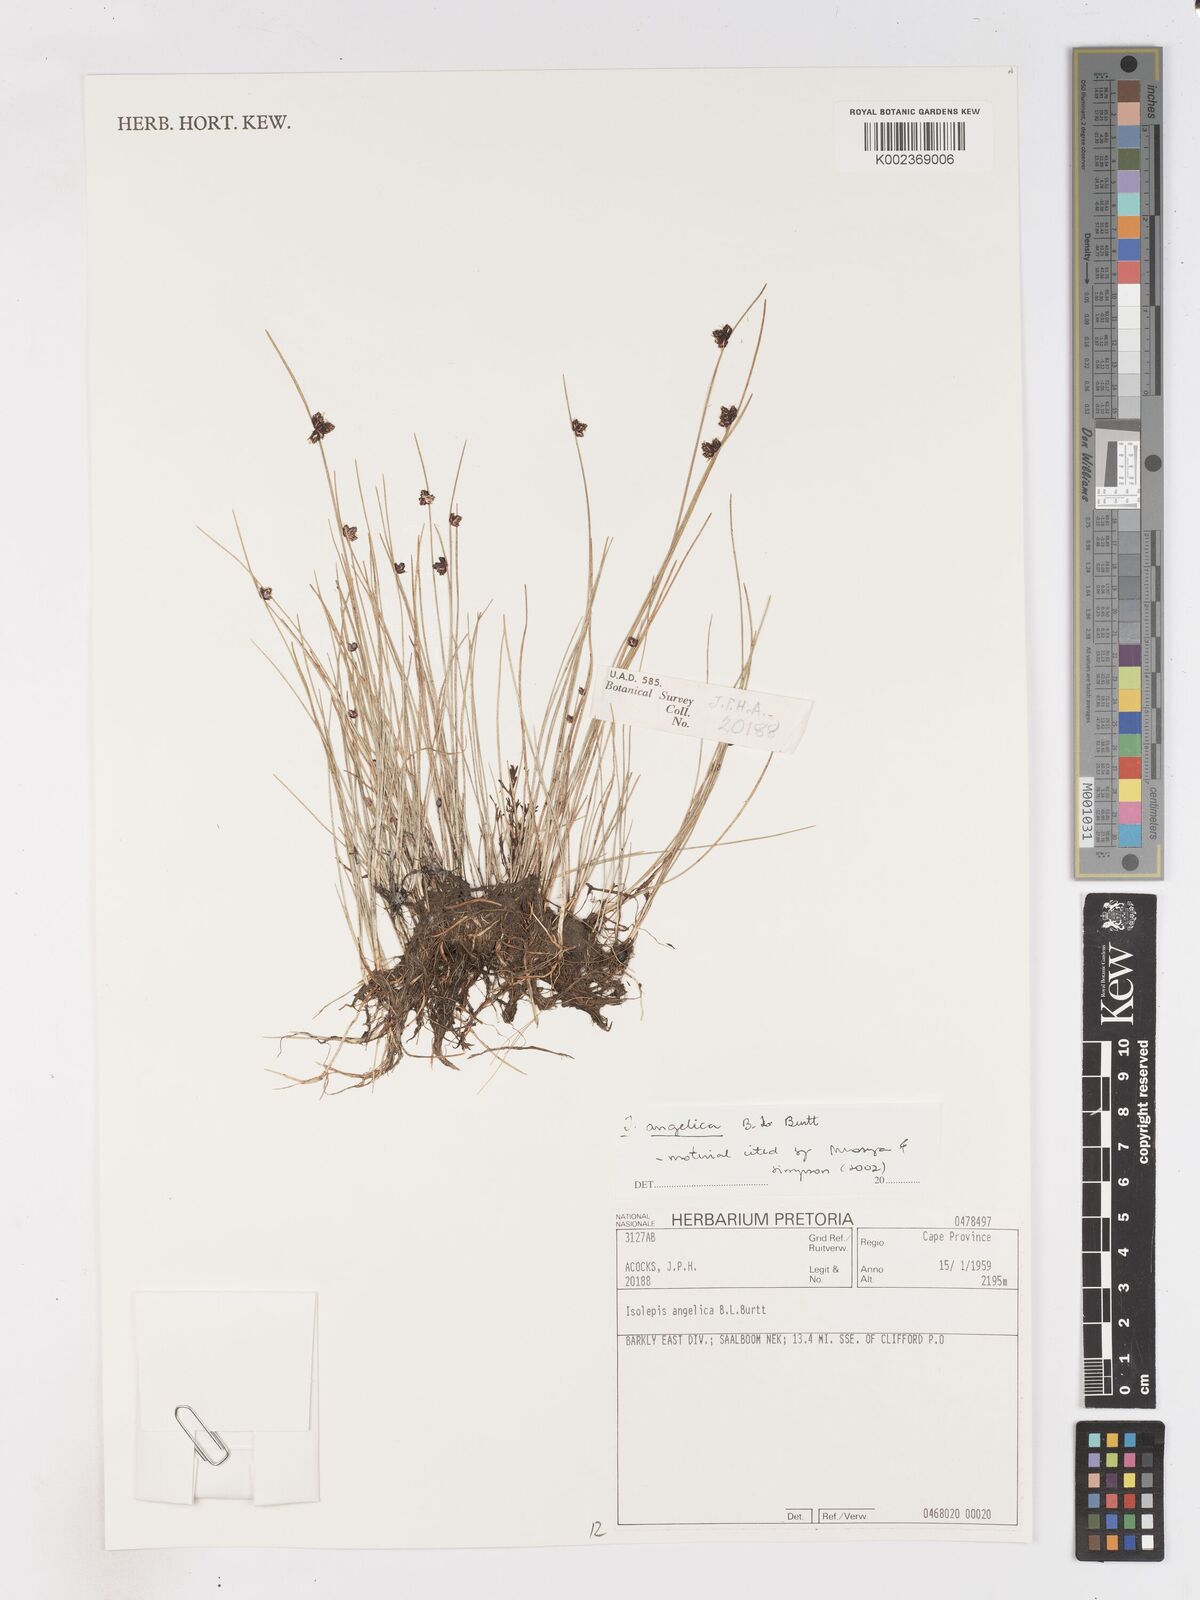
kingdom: Plantae
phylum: Tracheophyta
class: Liliopsida
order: Poales
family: Cyperaceae
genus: Isolepis
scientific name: Isolepis angelica
